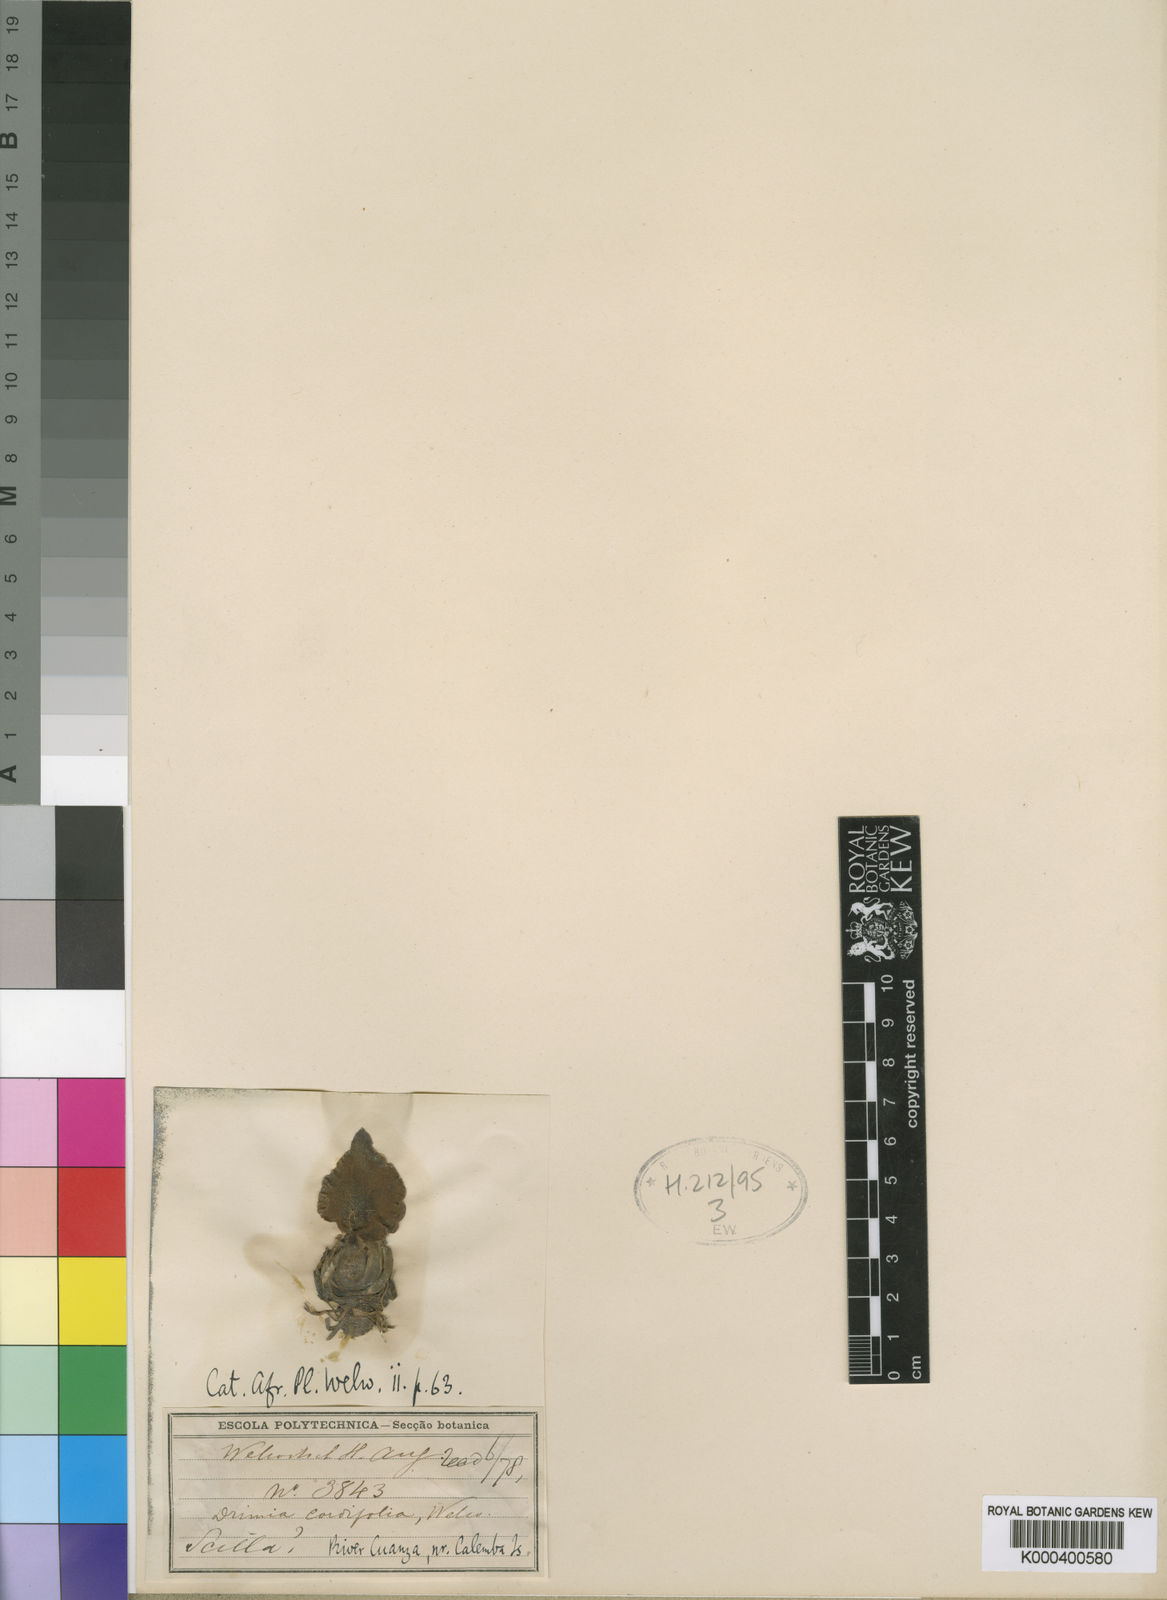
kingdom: Plantae
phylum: Tracheophyta
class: Liliopsida
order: Asparagales
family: Asparagaceae
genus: Drimia
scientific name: Drimia
